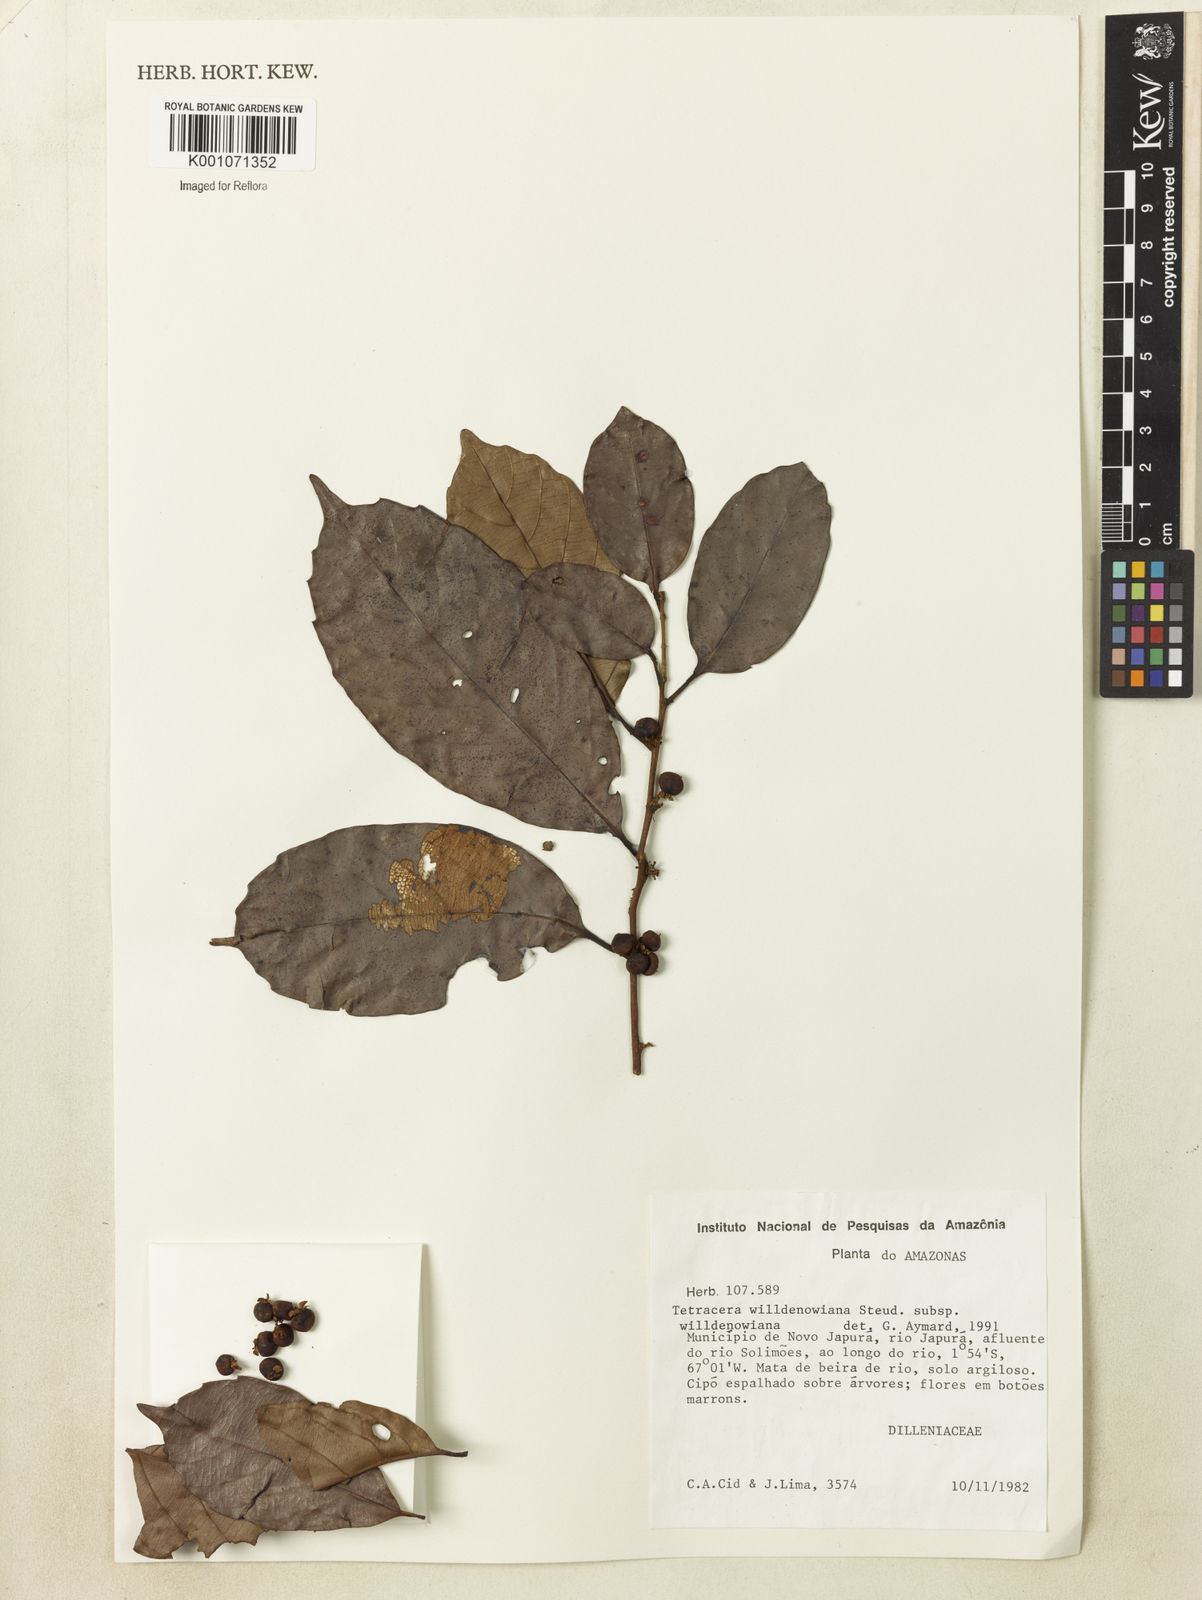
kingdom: Plantae
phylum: Tracheophyta
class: Magnoliopsida
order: Dilleniales
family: Dilleniaceae
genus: Tetracera
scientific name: Tetracera willdenowiana
